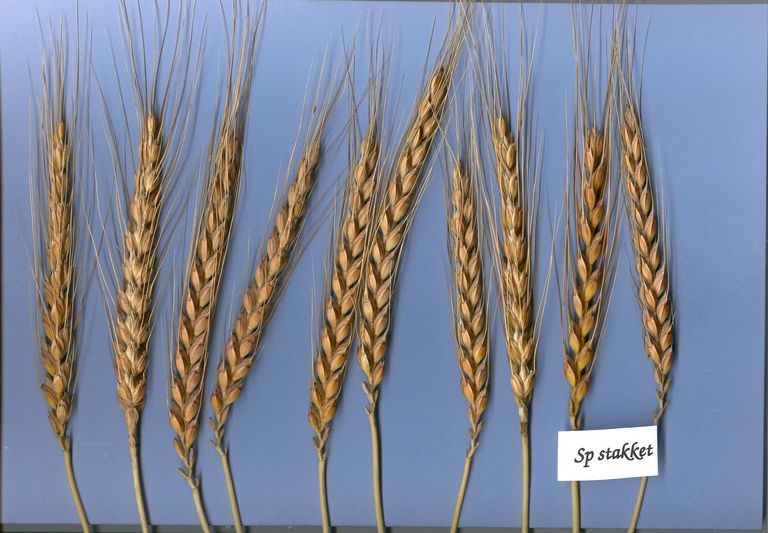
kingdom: Plantae
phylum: Tracheophyta
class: Liliopsida
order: Poales
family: Poaceae
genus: Triticum
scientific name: Triticum aestivum
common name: Common wheat
